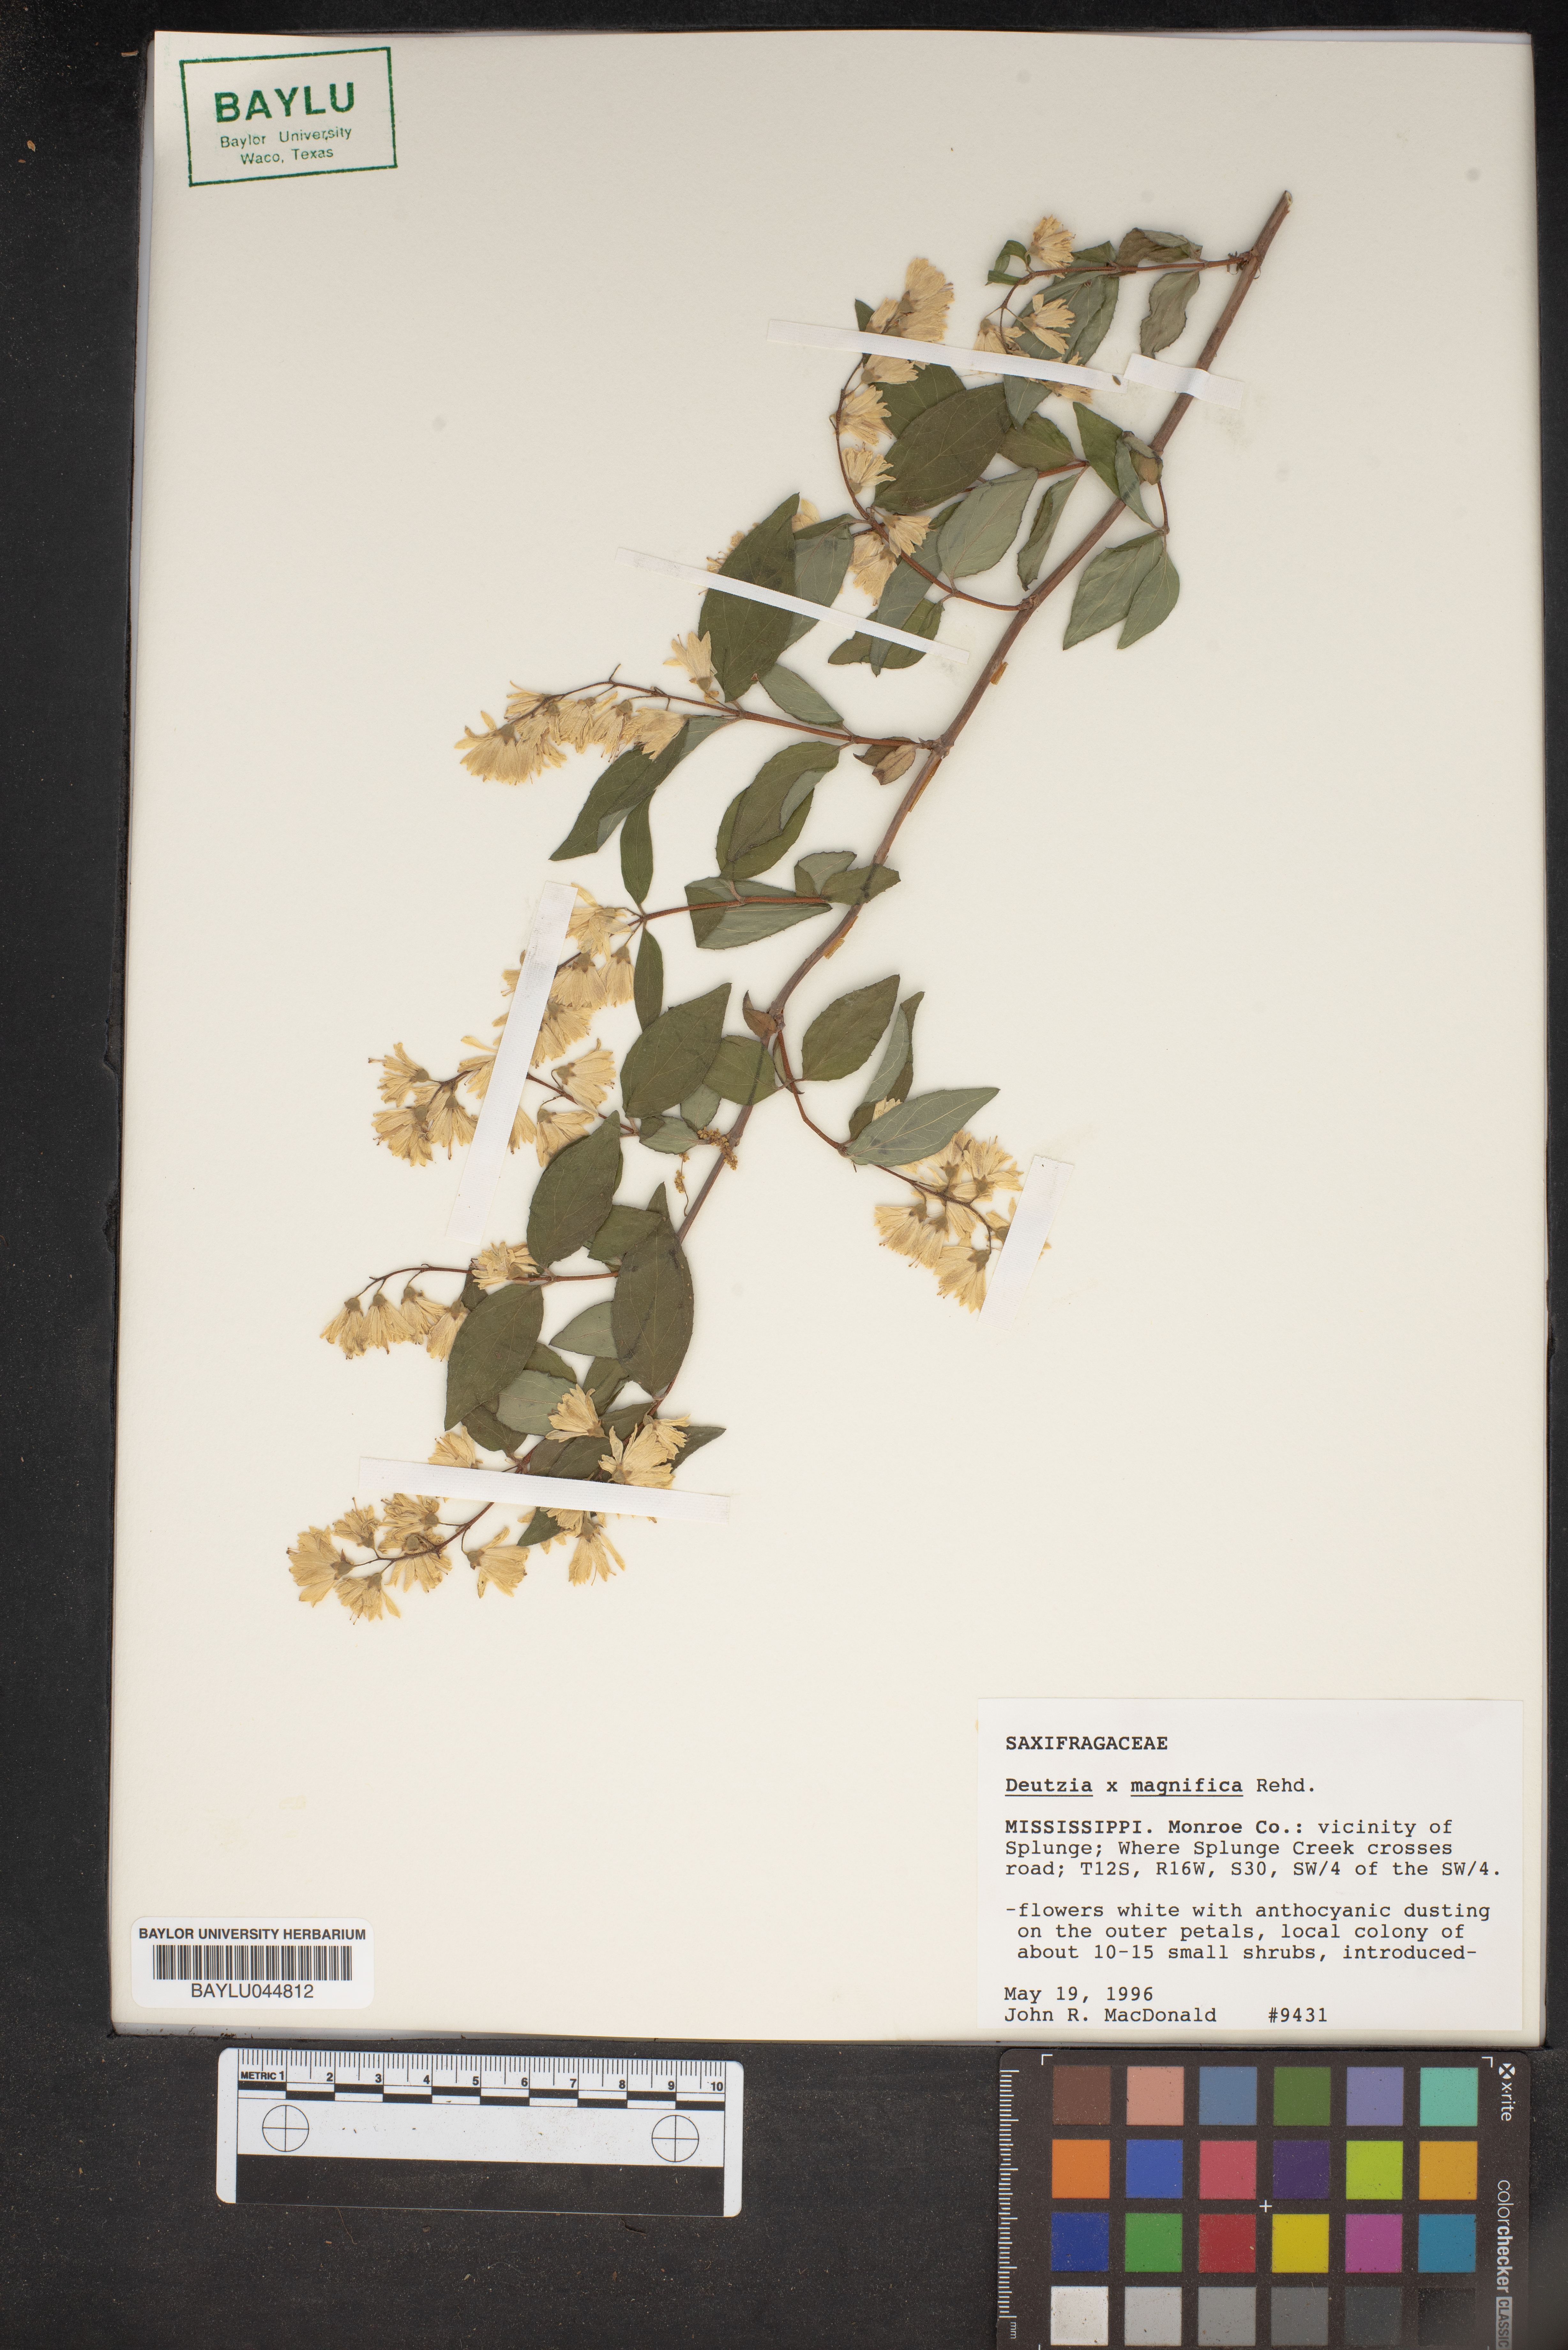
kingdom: Plantae
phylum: Tracheophyta
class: Magnoliopsida
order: Cornales
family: Hydrangeaceae
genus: Deutzia
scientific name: Deutzia magnifica
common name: Pride-of-rochester
